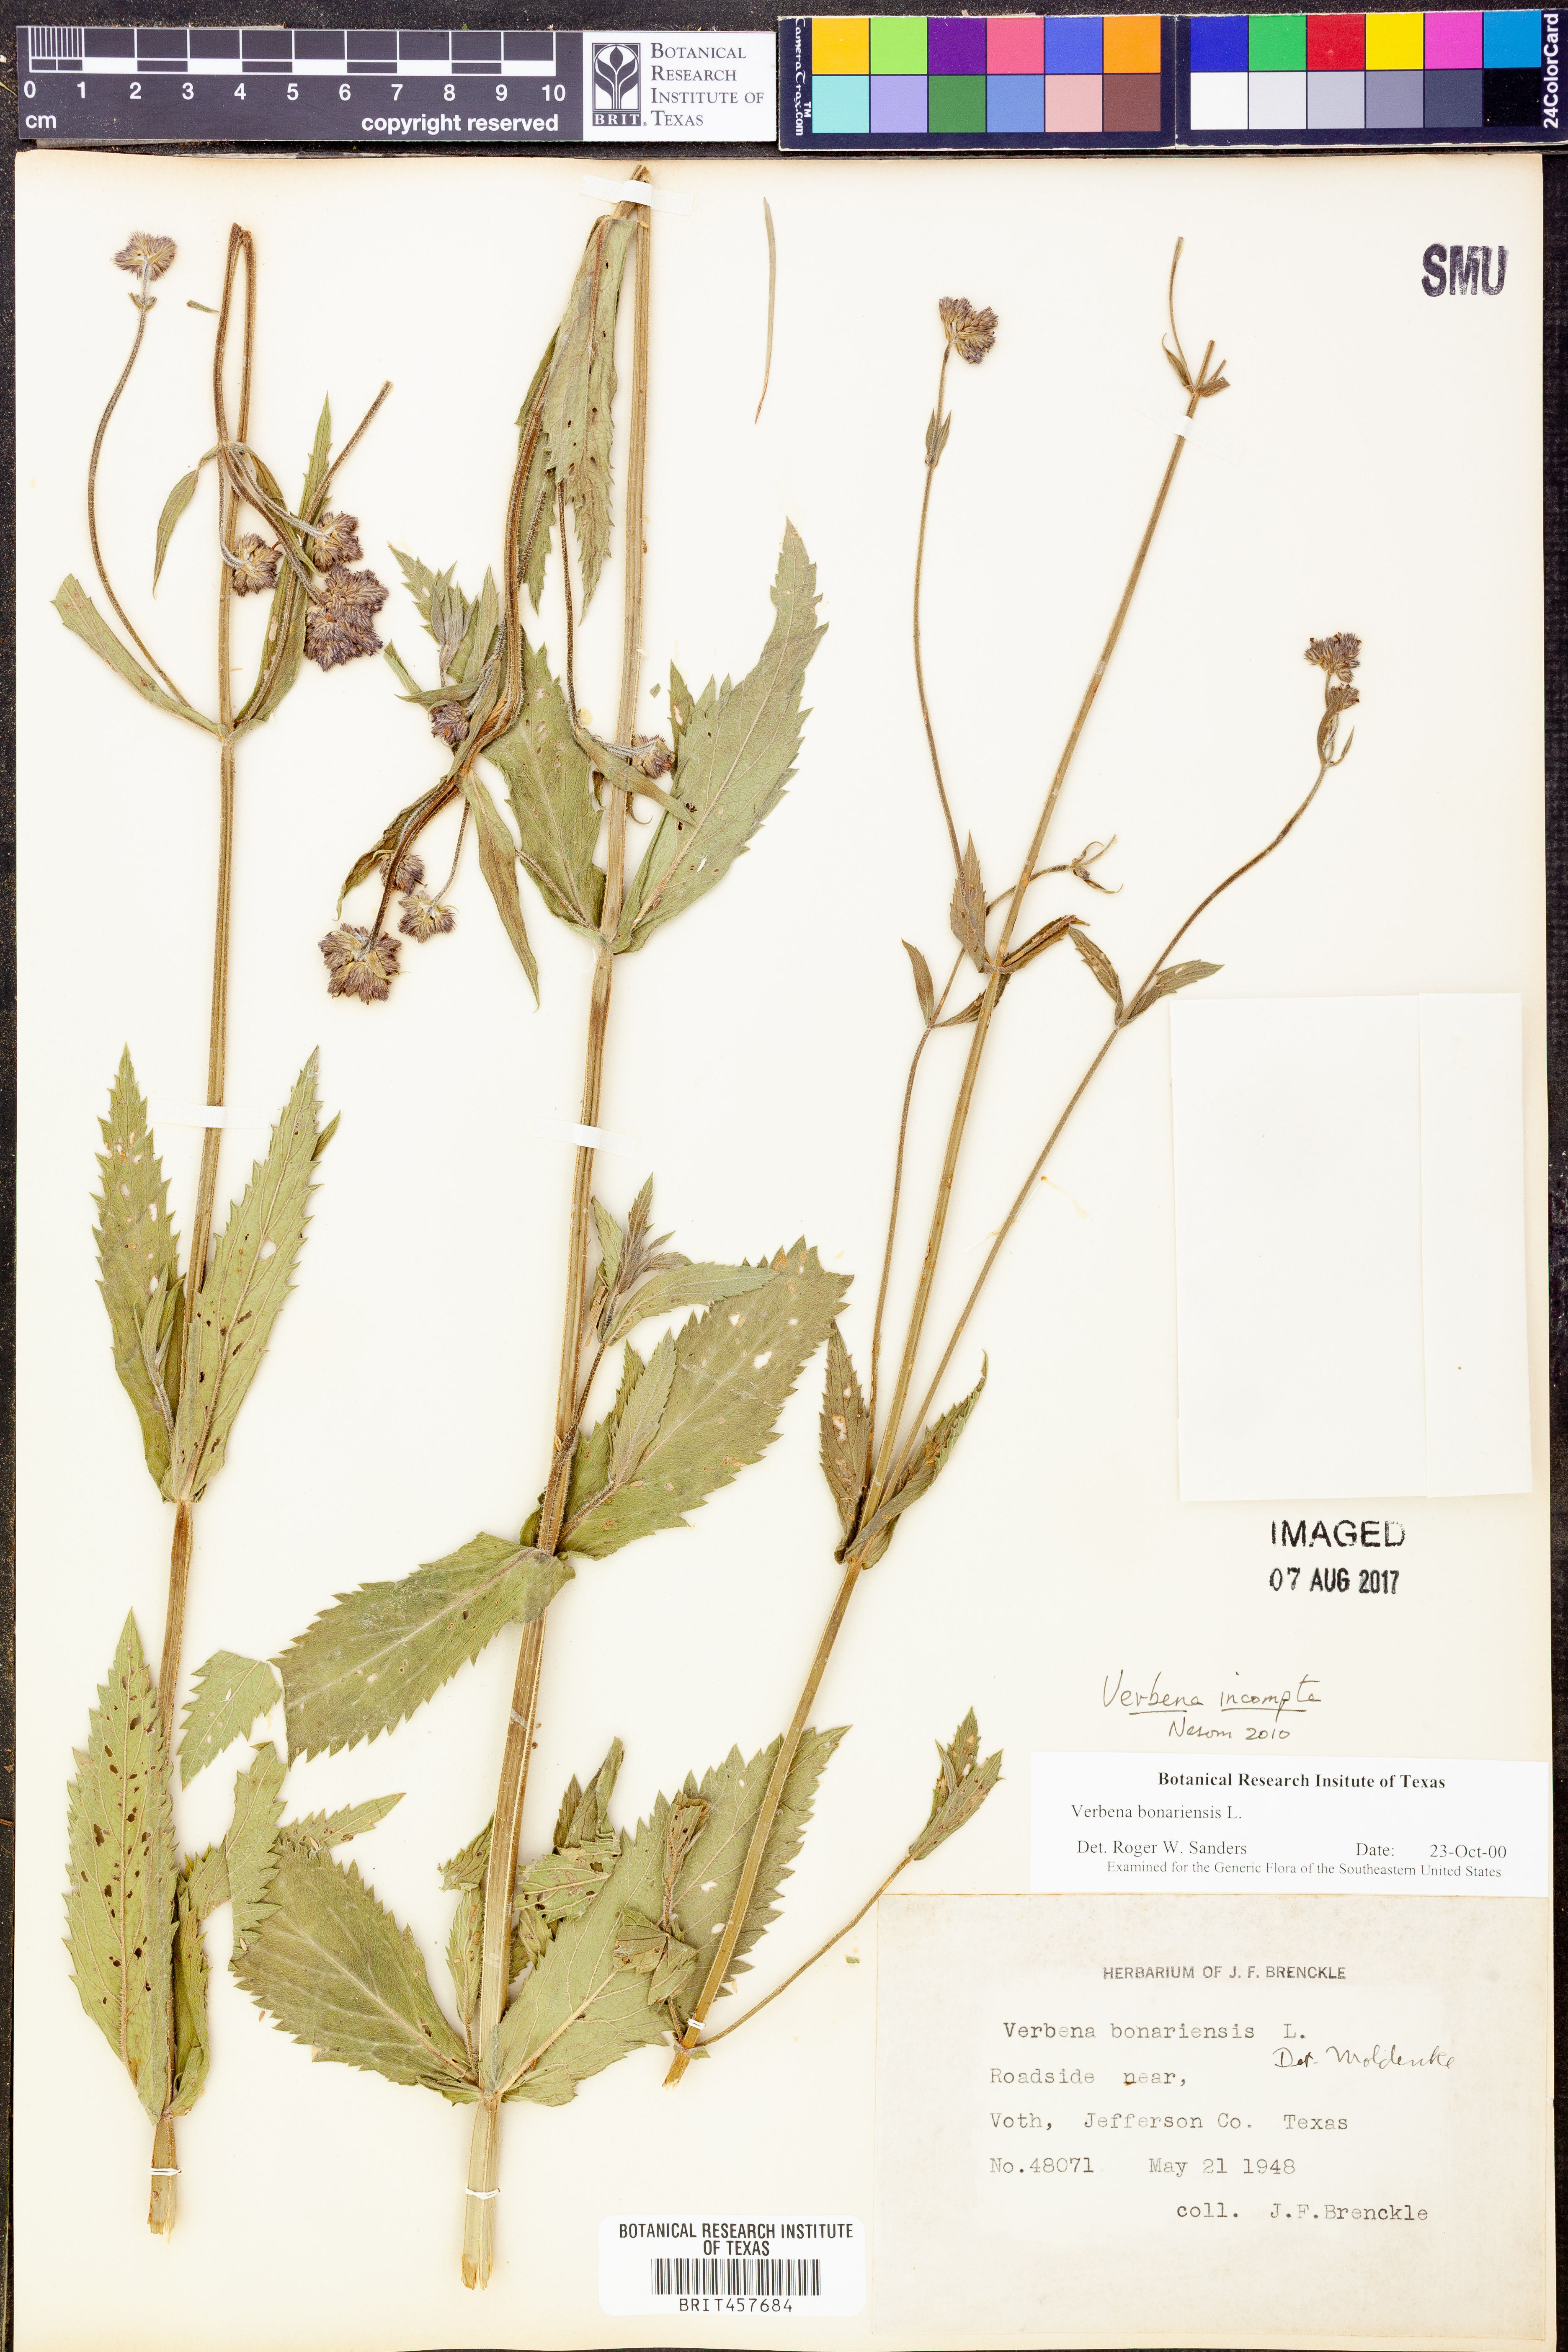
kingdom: Plantae
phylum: Tracheophyta
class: Magnoliopsida
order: Lamiales
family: Verbenaceae
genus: Verbena
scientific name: Verbena incompta
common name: Purpletop vervain
